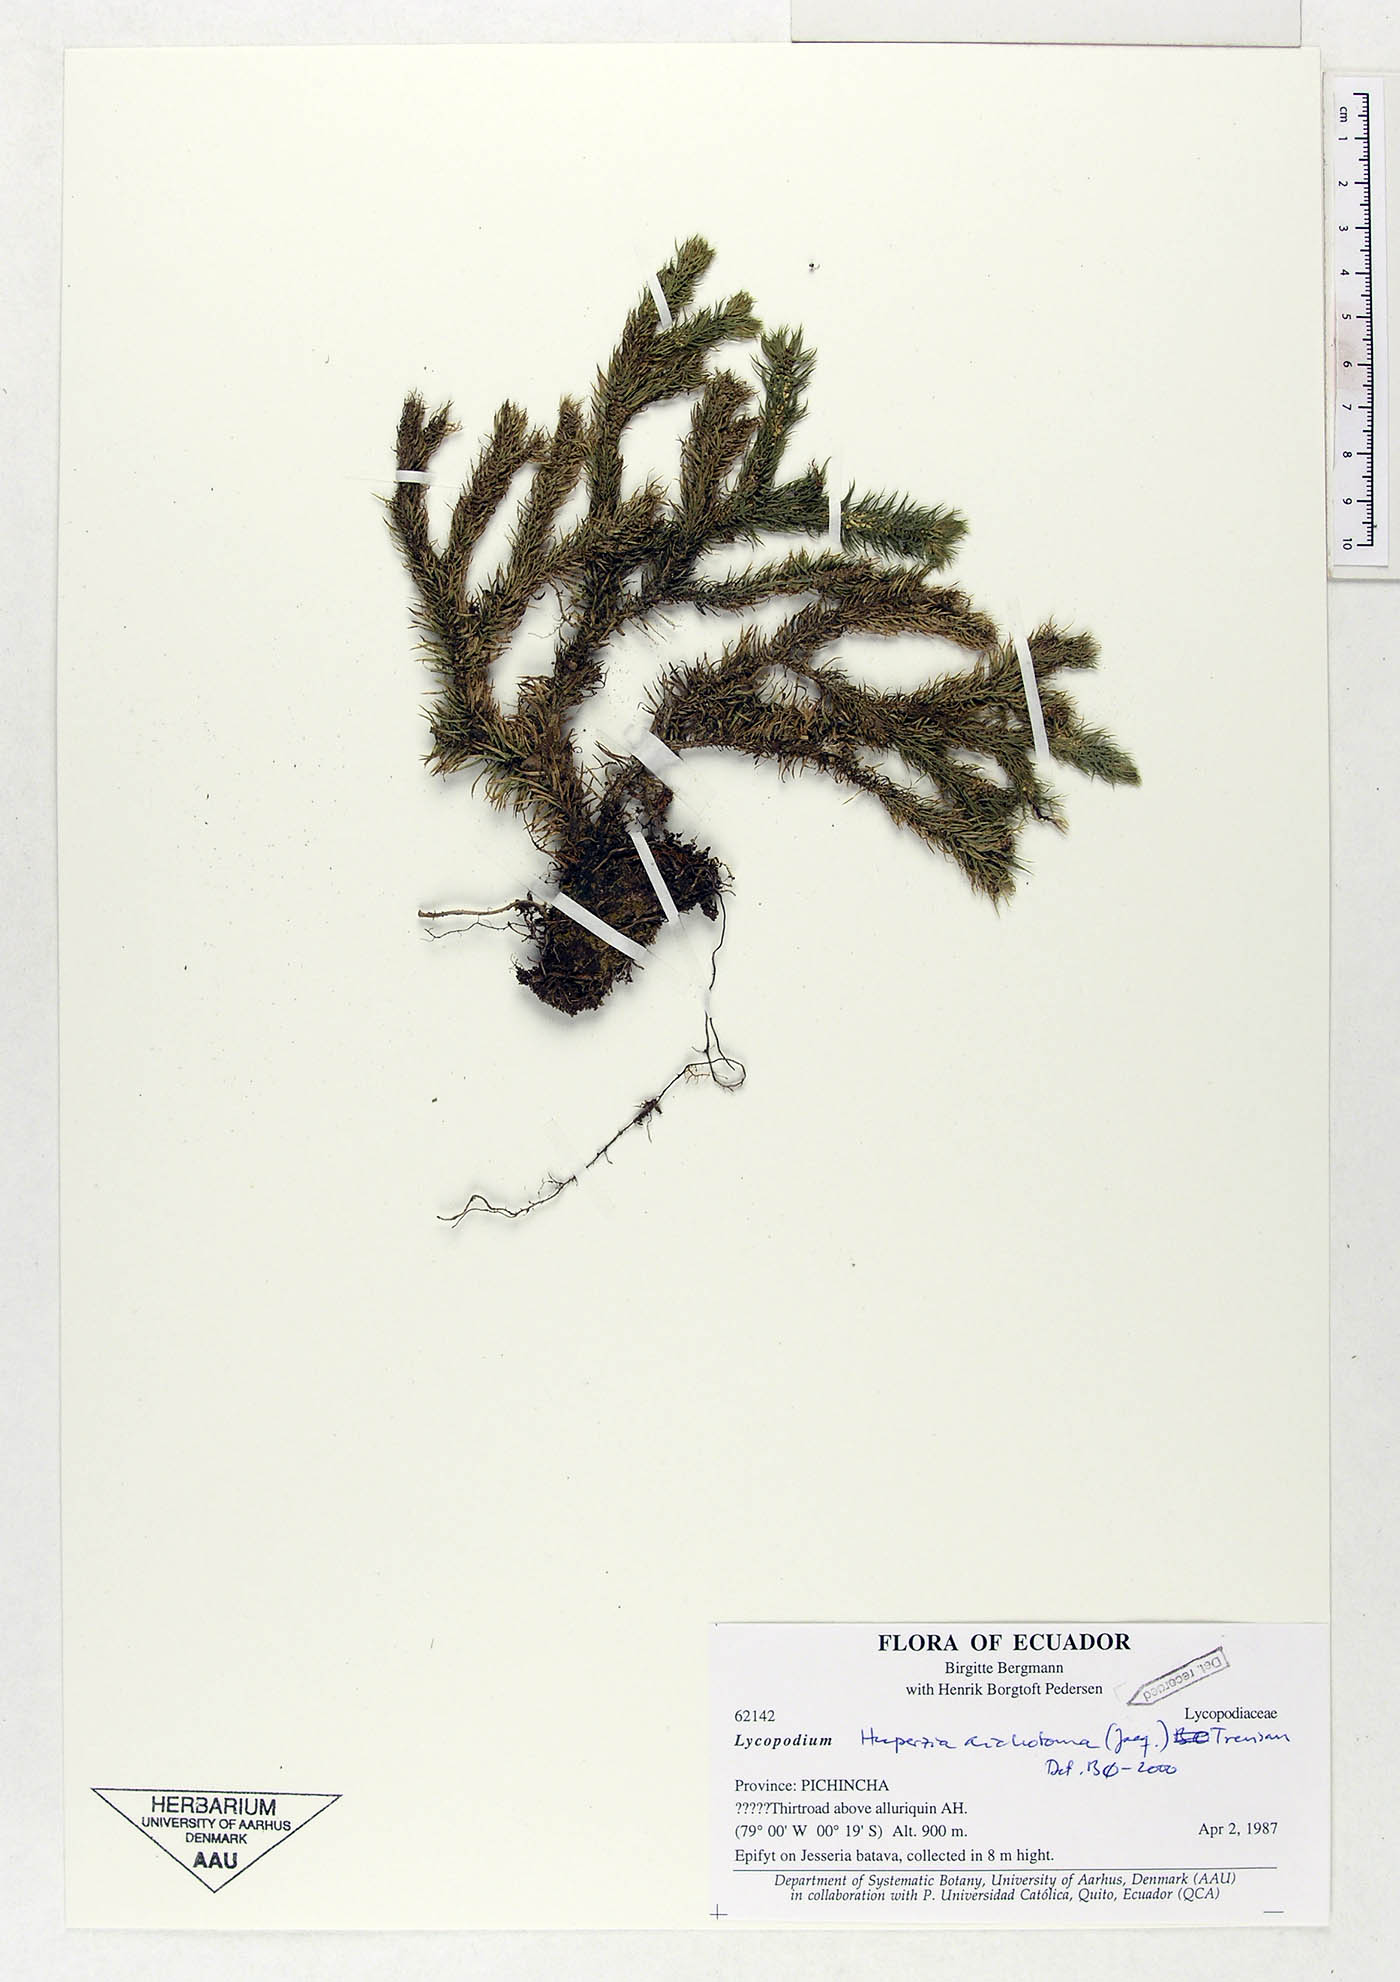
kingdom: Plantae
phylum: Tracheophyta
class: Lycopodiopsida
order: Lycopodiales
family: Lycopodiaceae
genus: Phlegmariurus
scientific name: Phlegmariurus dichotomus
